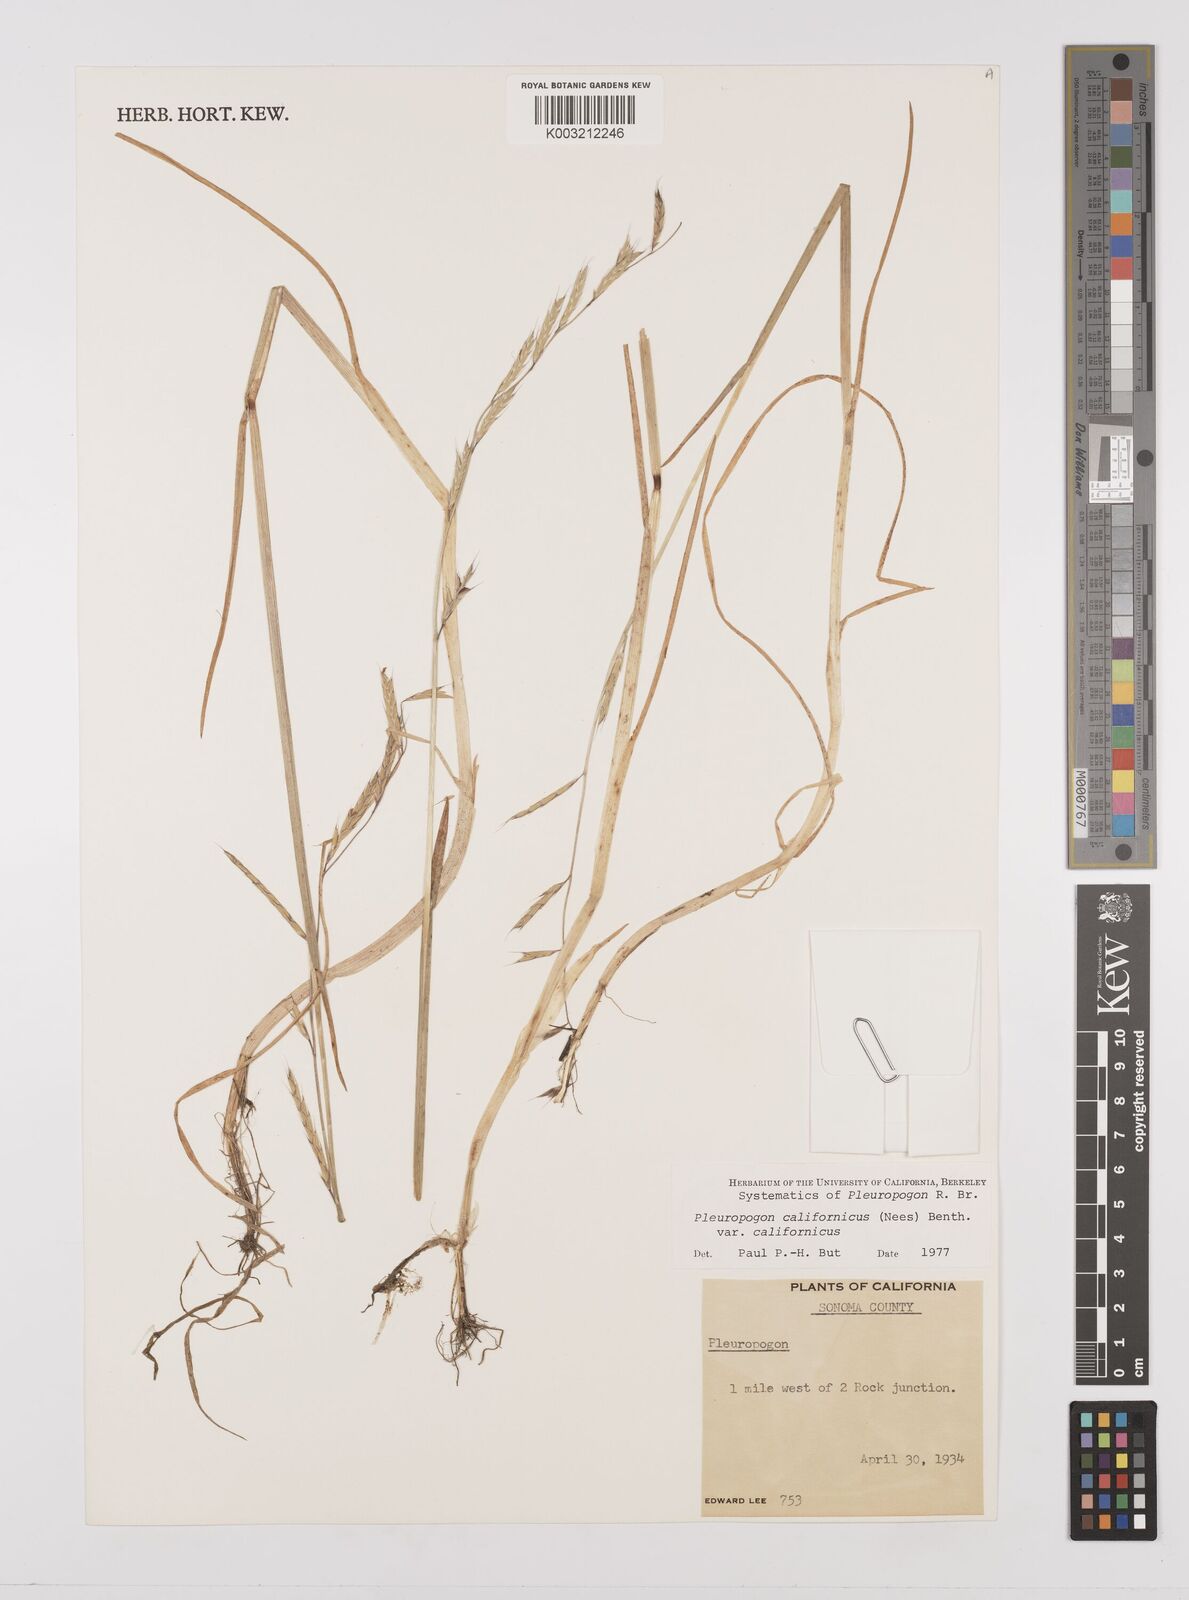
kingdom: Plantae
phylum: Tracheophyta
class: Liliopsida
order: Poales
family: Poaceae
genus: Pleuropogon
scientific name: Pleuropogon californicus
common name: California semaphore grass
